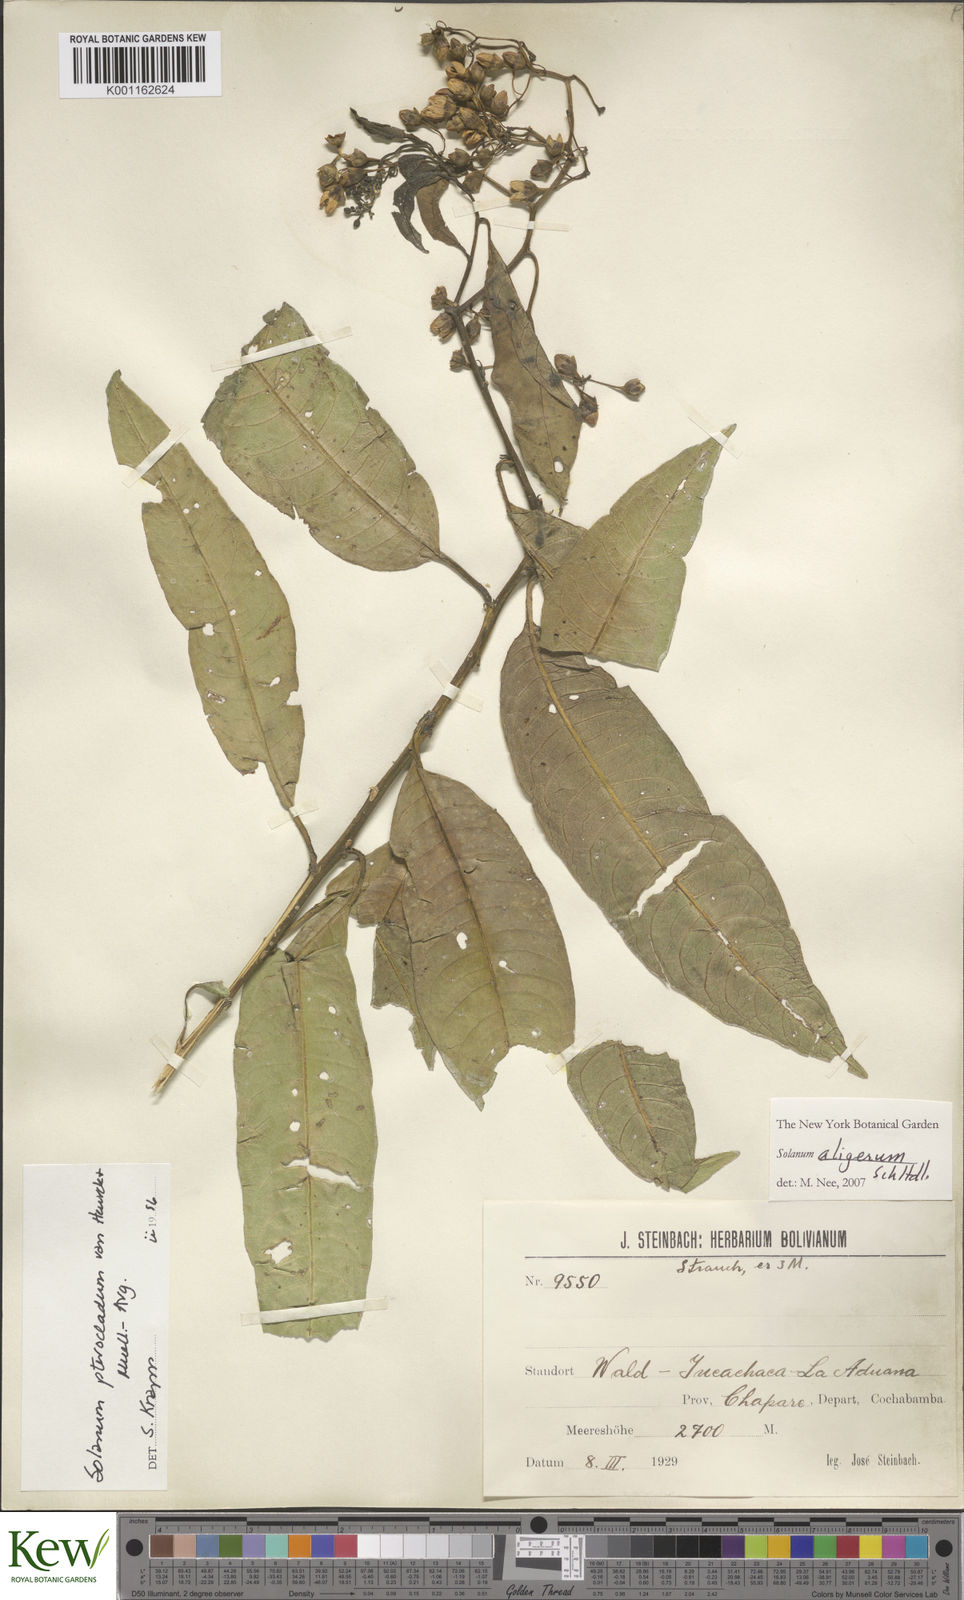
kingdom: Plantae
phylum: Tracheophyta
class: Magnoliopsida
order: Solanales
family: Solanaceae
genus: Solanum
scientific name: Solanum aligerum
